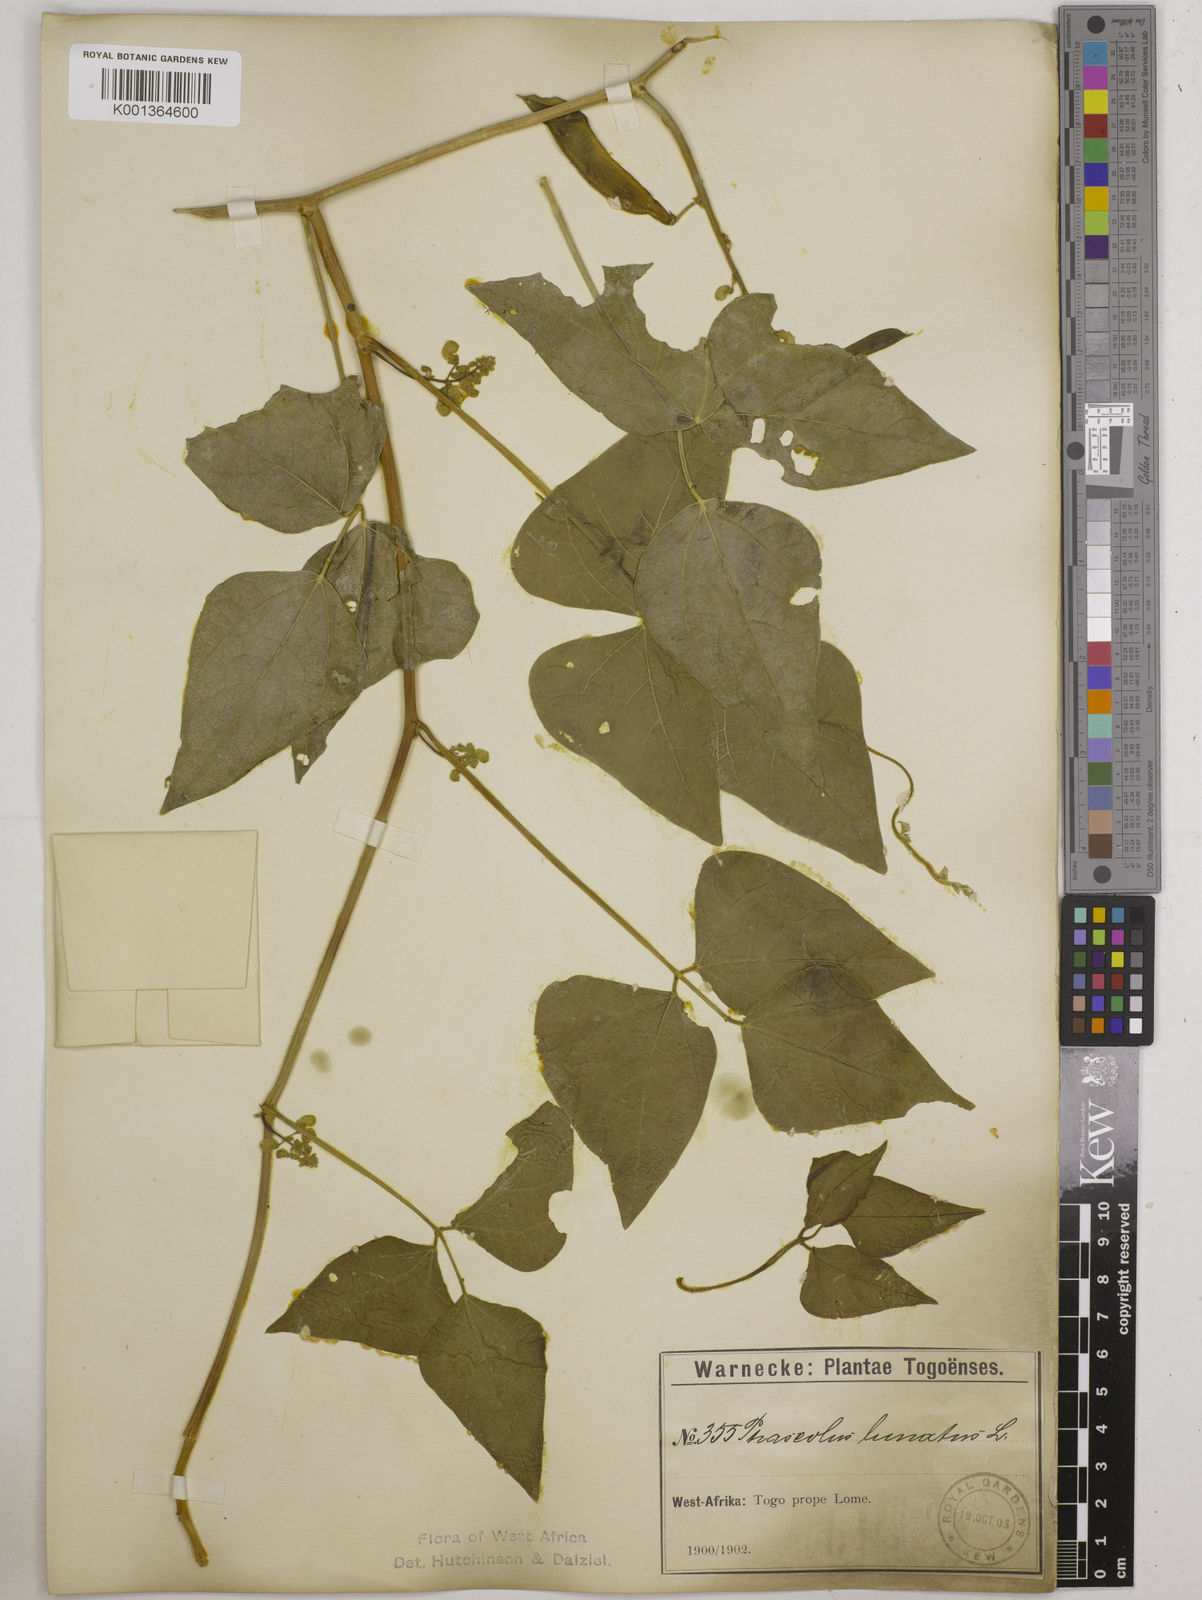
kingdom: Plantae
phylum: Tracheophyta
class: Magnoliopsida
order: Fabales
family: Fabaceae
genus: Phaseolus
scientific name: Phaseolus lunatus
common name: Sieva bean
